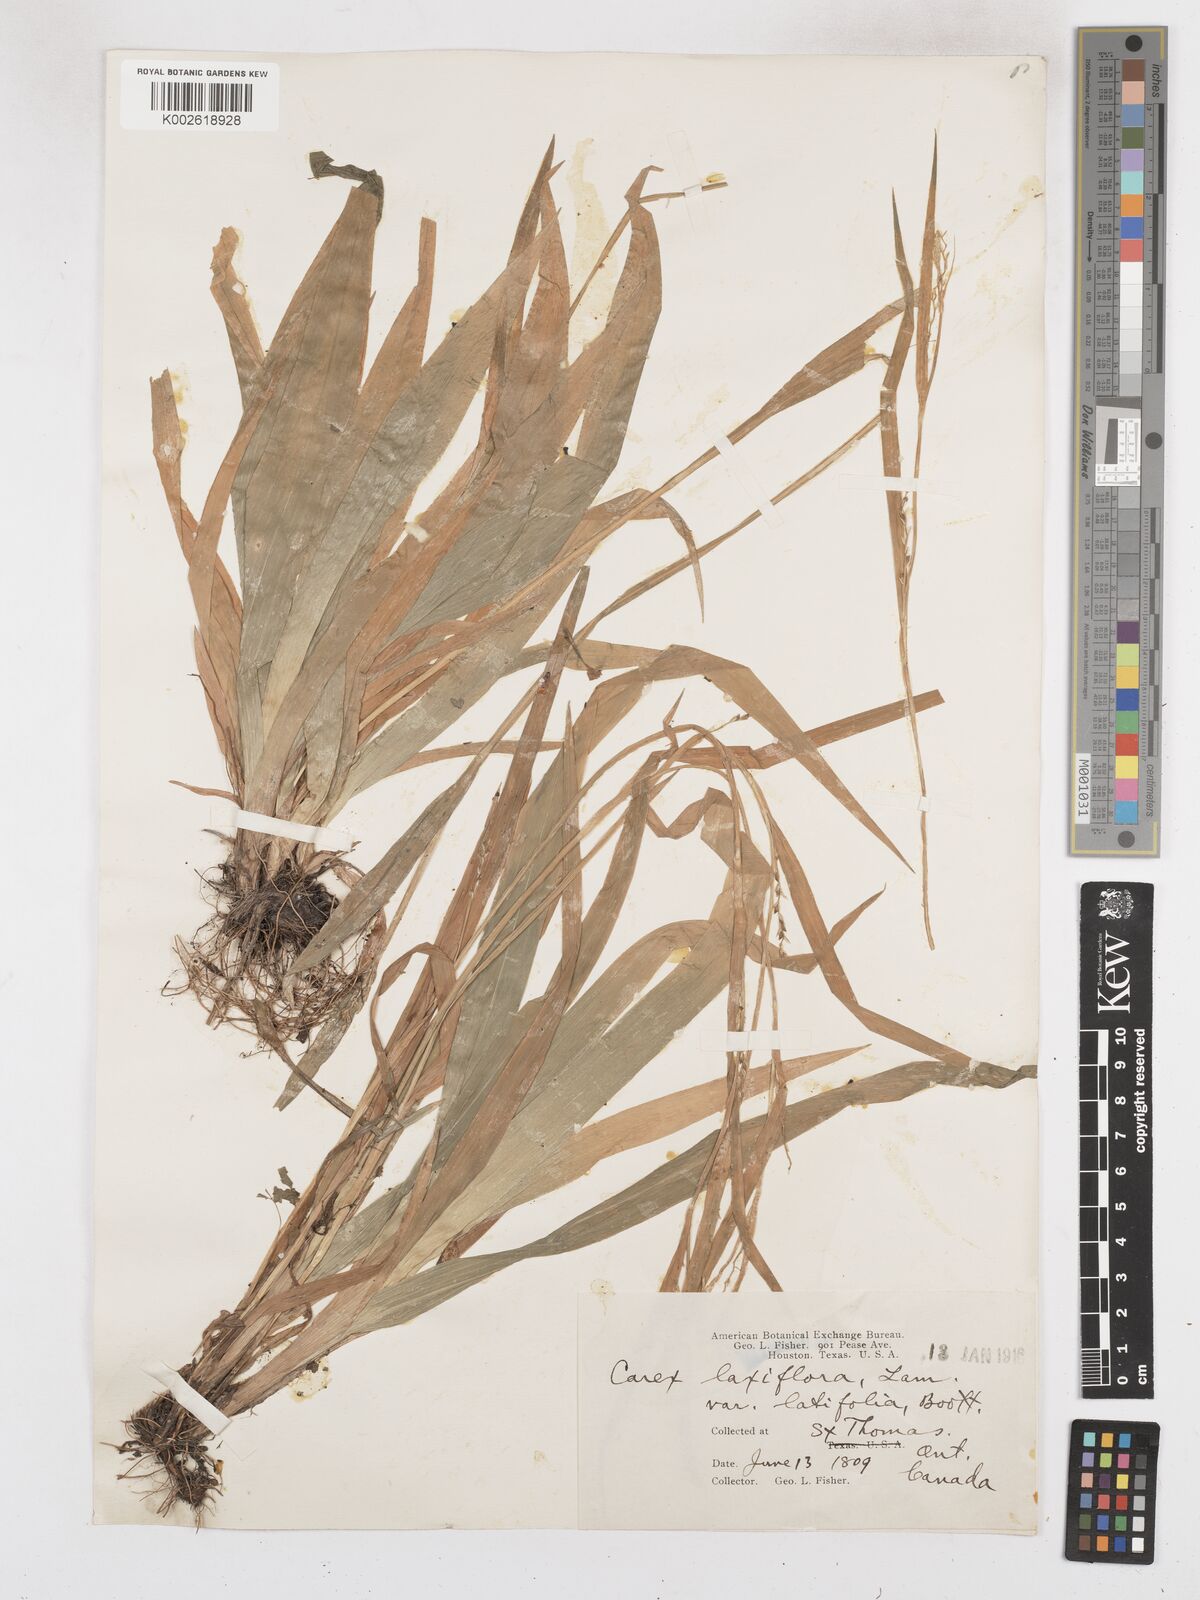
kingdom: Plantae
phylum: Tracheophyta
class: Liliopsida
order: Poales
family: Cyperaceae
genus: Carex
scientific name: Carex laxiflora
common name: Beech wood sedge
